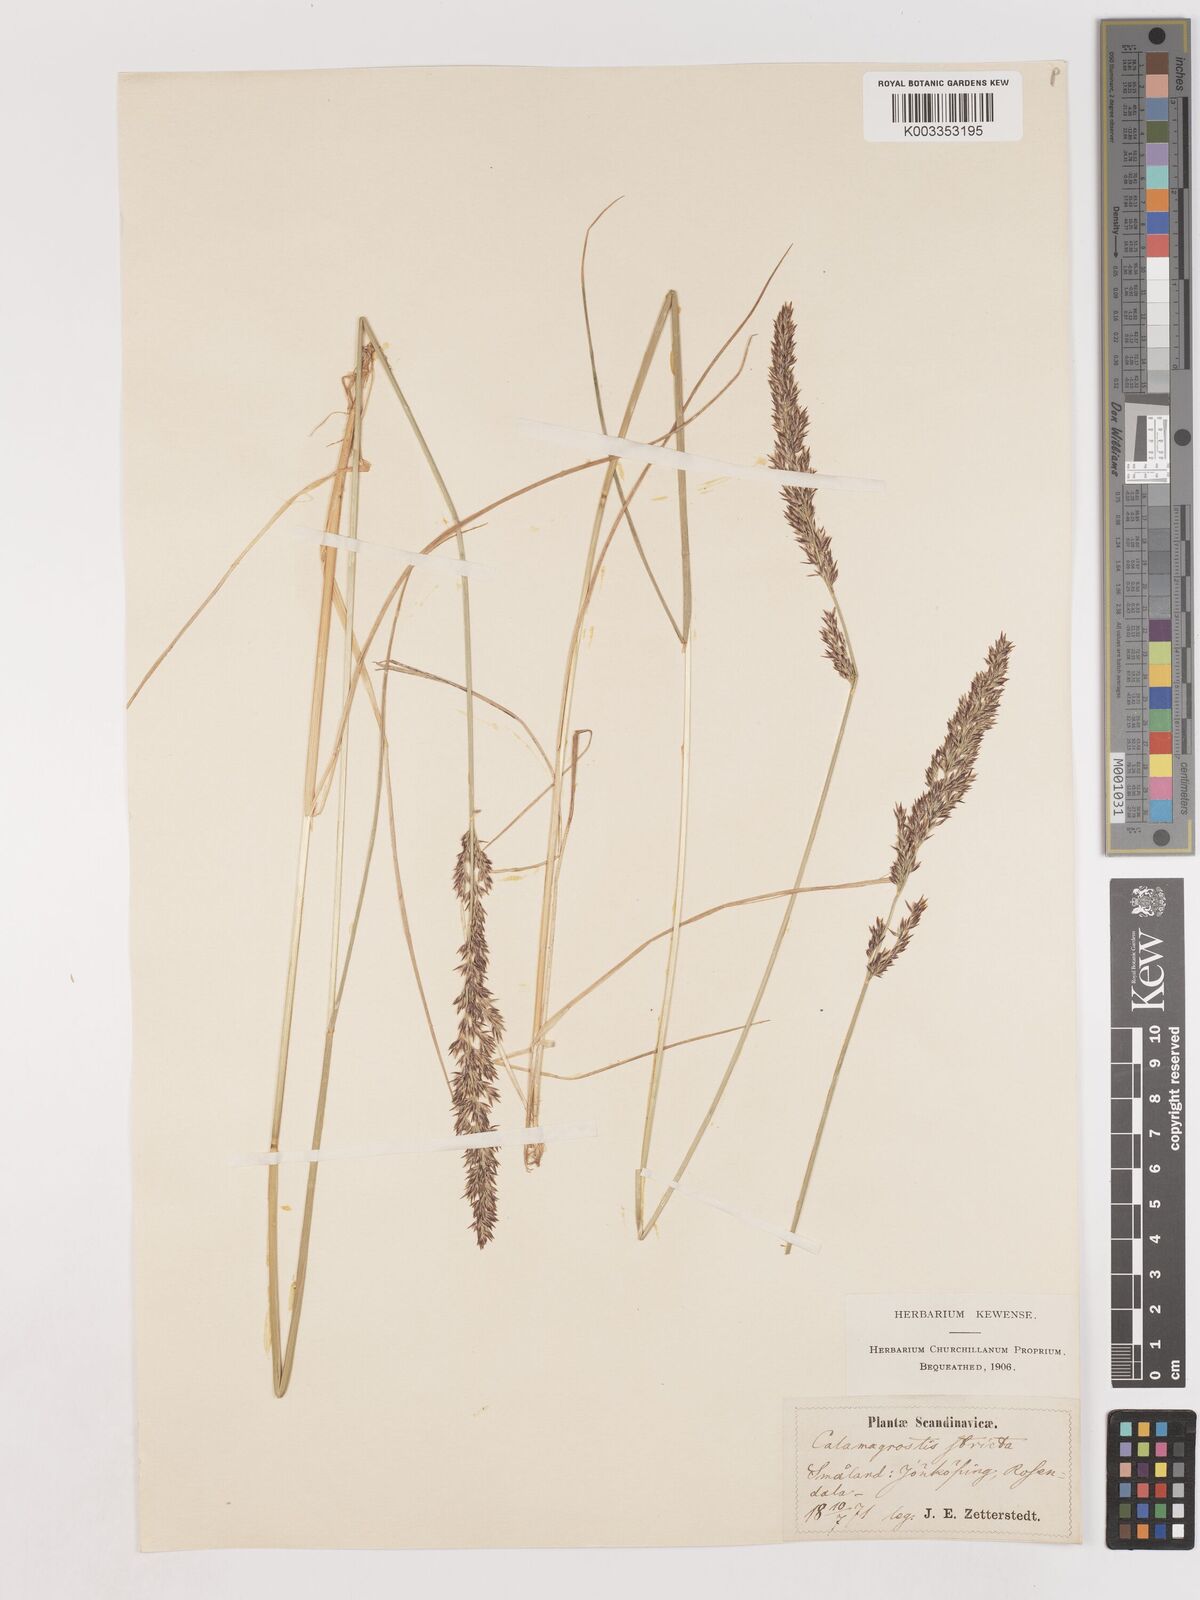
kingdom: Plantae
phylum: Tracheophyta
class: Liliopsida
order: Poales
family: Poaceae
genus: Cinnagrostis
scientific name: Cinnagrostis recta
